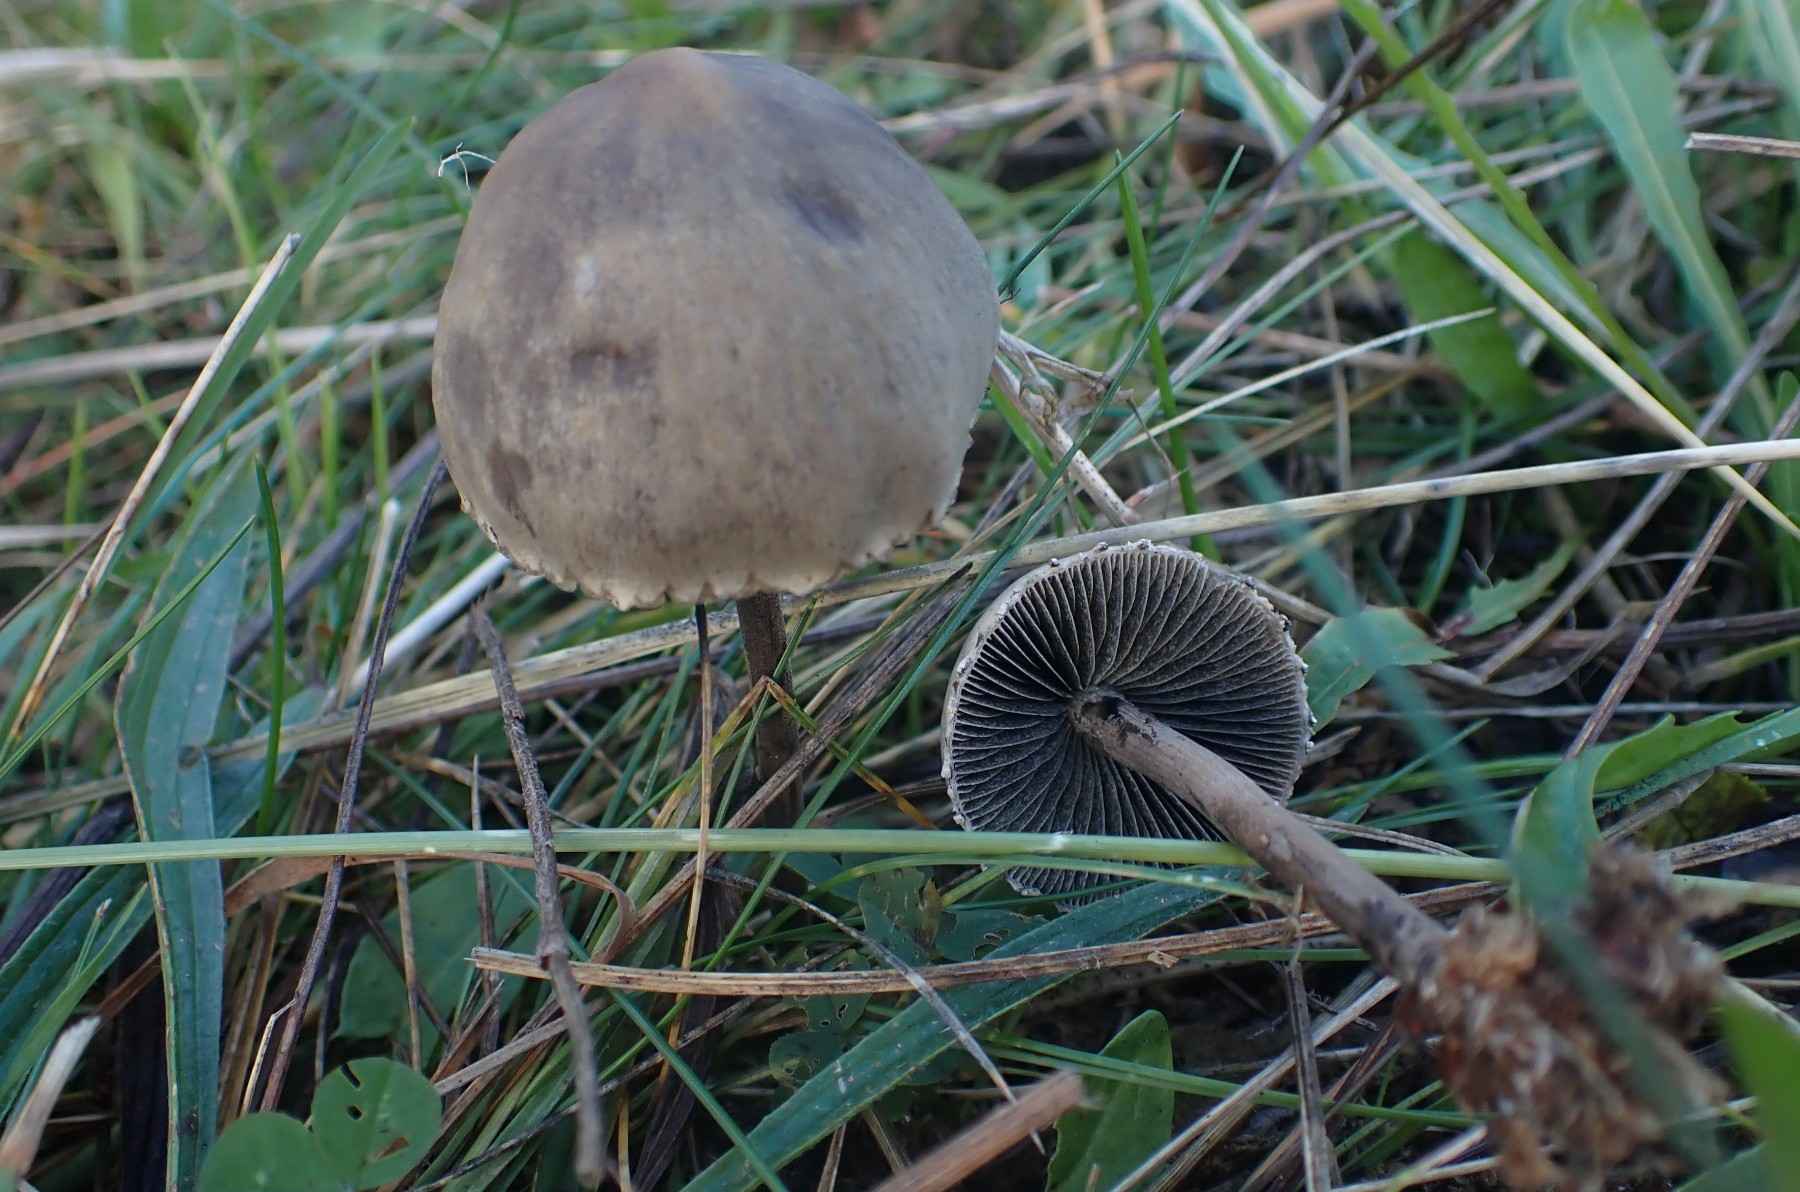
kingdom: Fungi
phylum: Basidiomycota
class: Agaricomycetes
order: Agaricales
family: Bolbitiaceae
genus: Panaeolus
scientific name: Panaeolus papilionaceus
